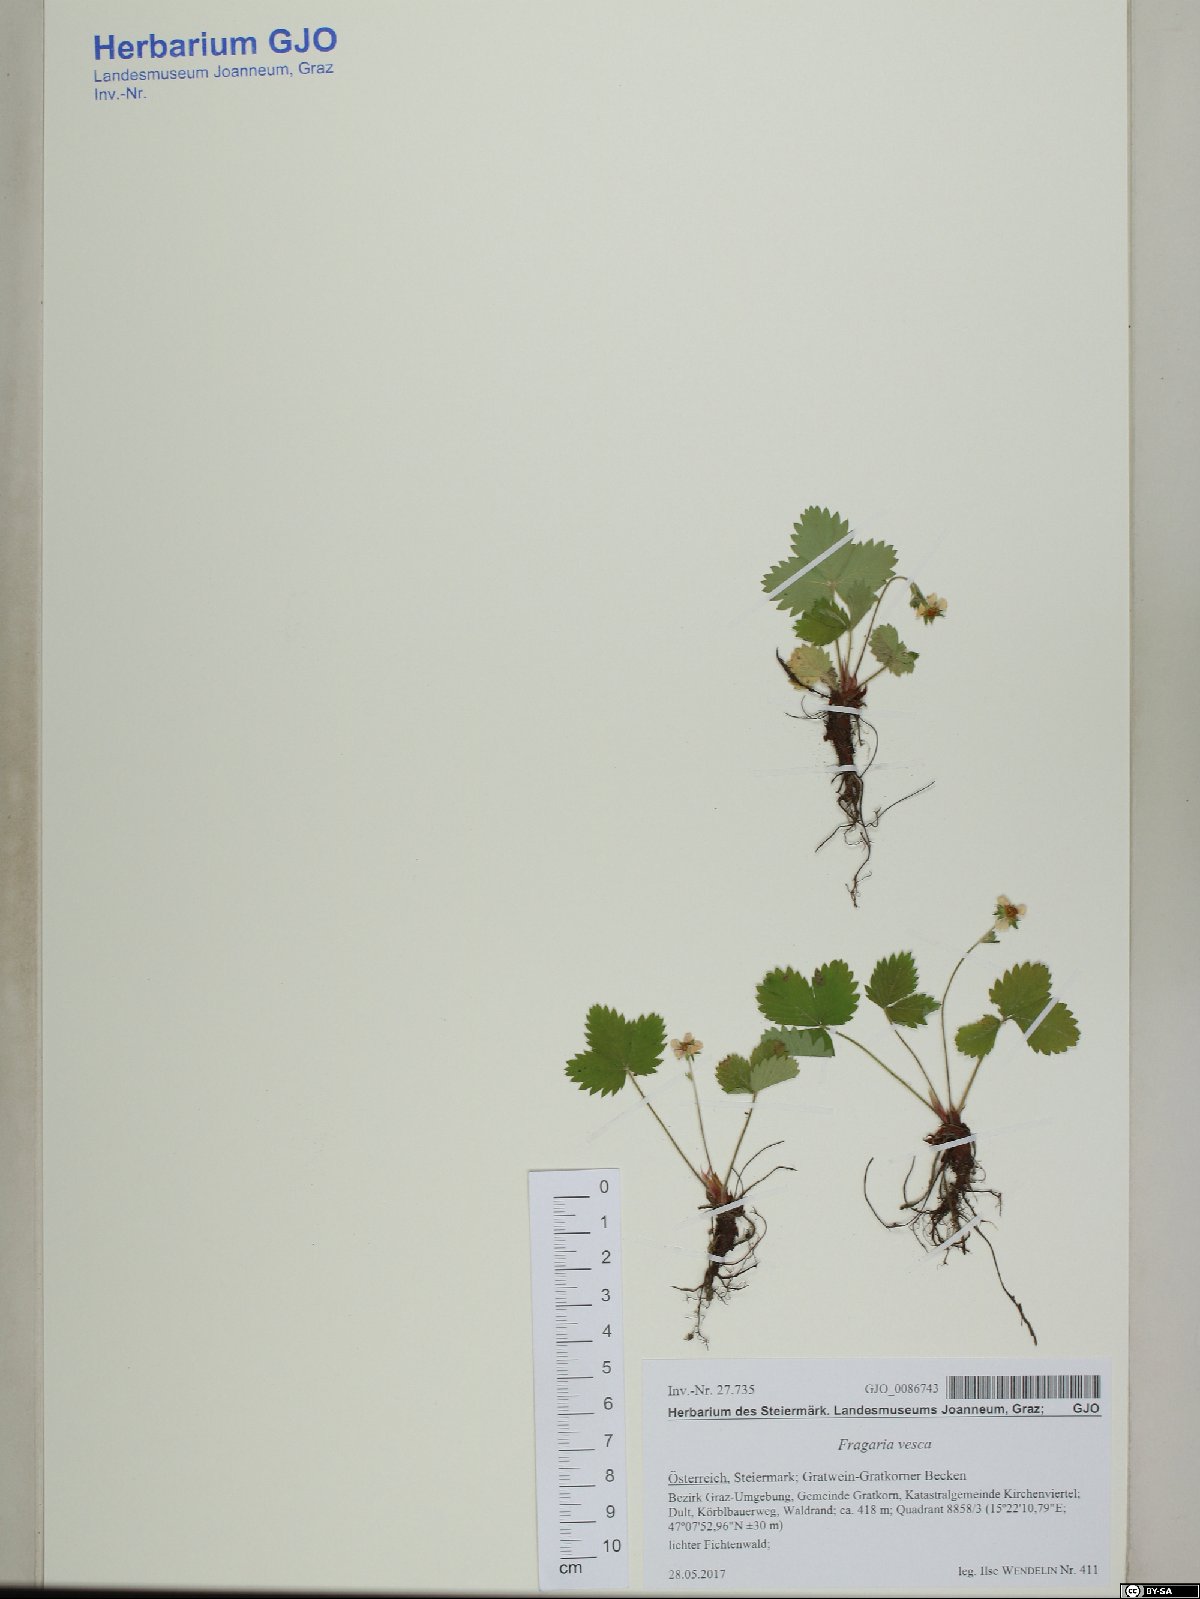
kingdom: Plantae
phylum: Tracheophyta
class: Magnoliopsida
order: Rosales
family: Rosaceae
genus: Fragaria
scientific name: Fragaria vesca
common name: Wild strawberry
